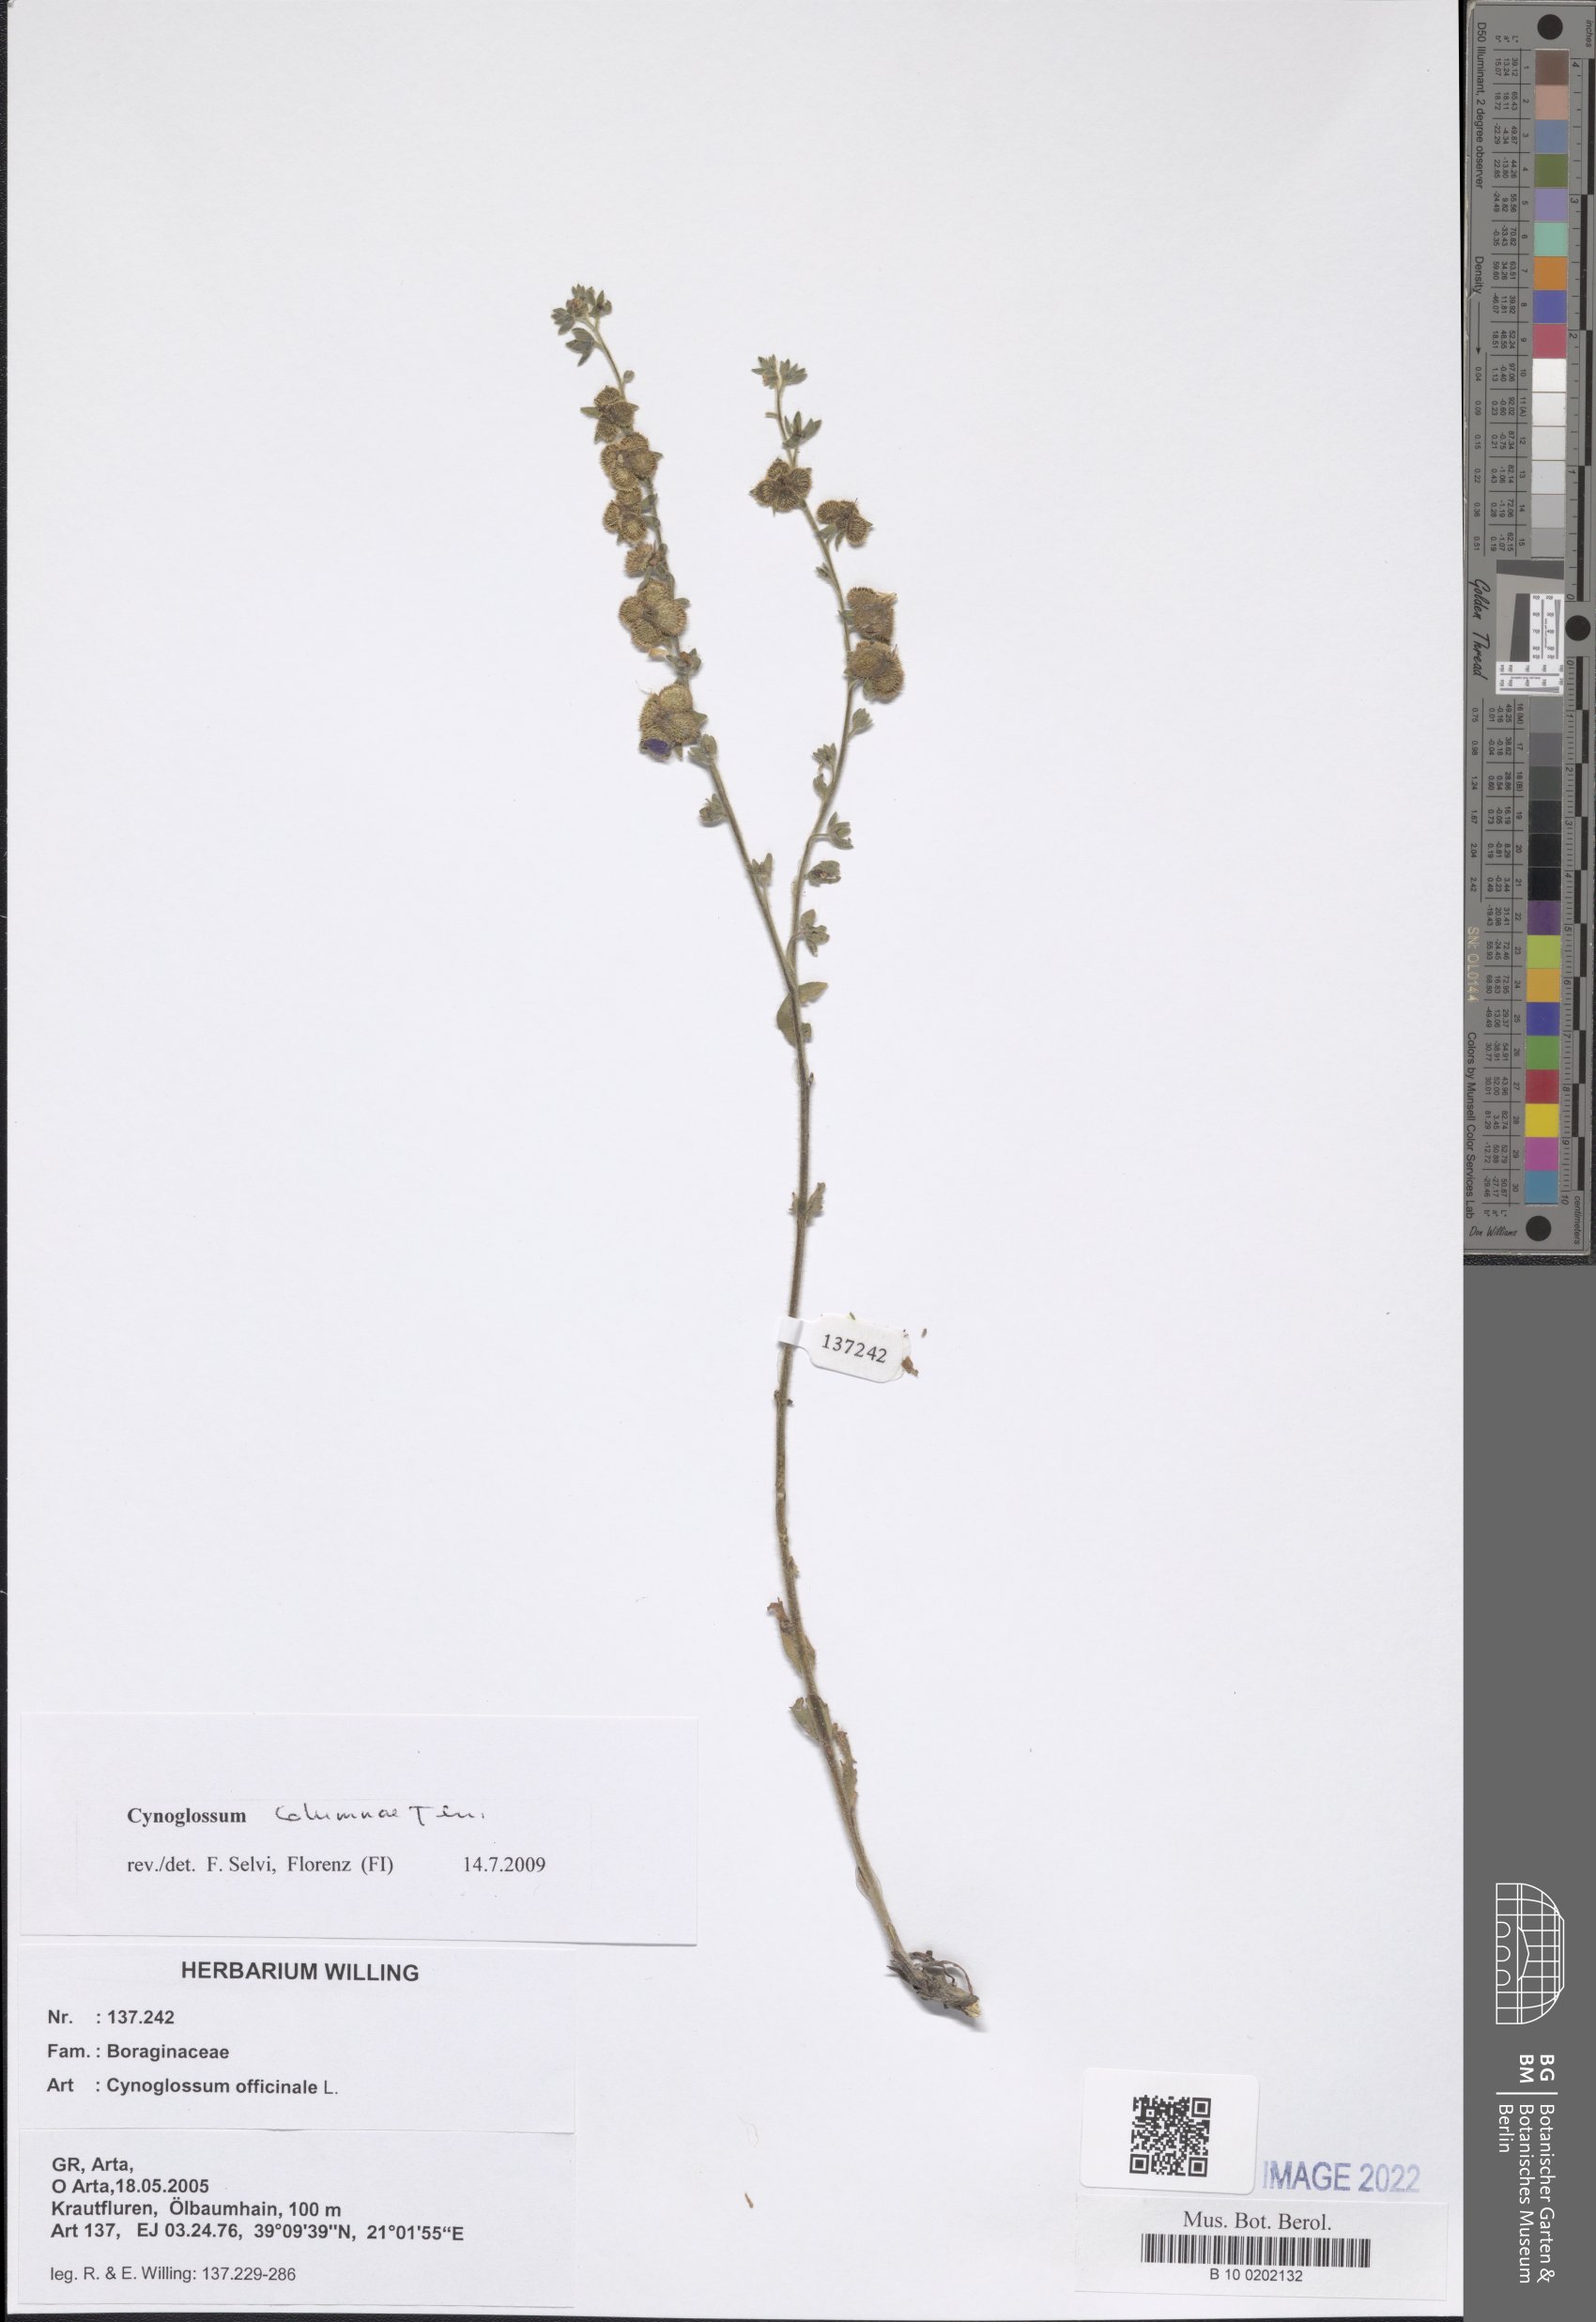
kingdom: Plantae
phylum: Tracheophyta
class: Magnoliopsida
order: Boraginales
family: Boraginaceae
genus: Rindera
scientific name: Rindera columnae
